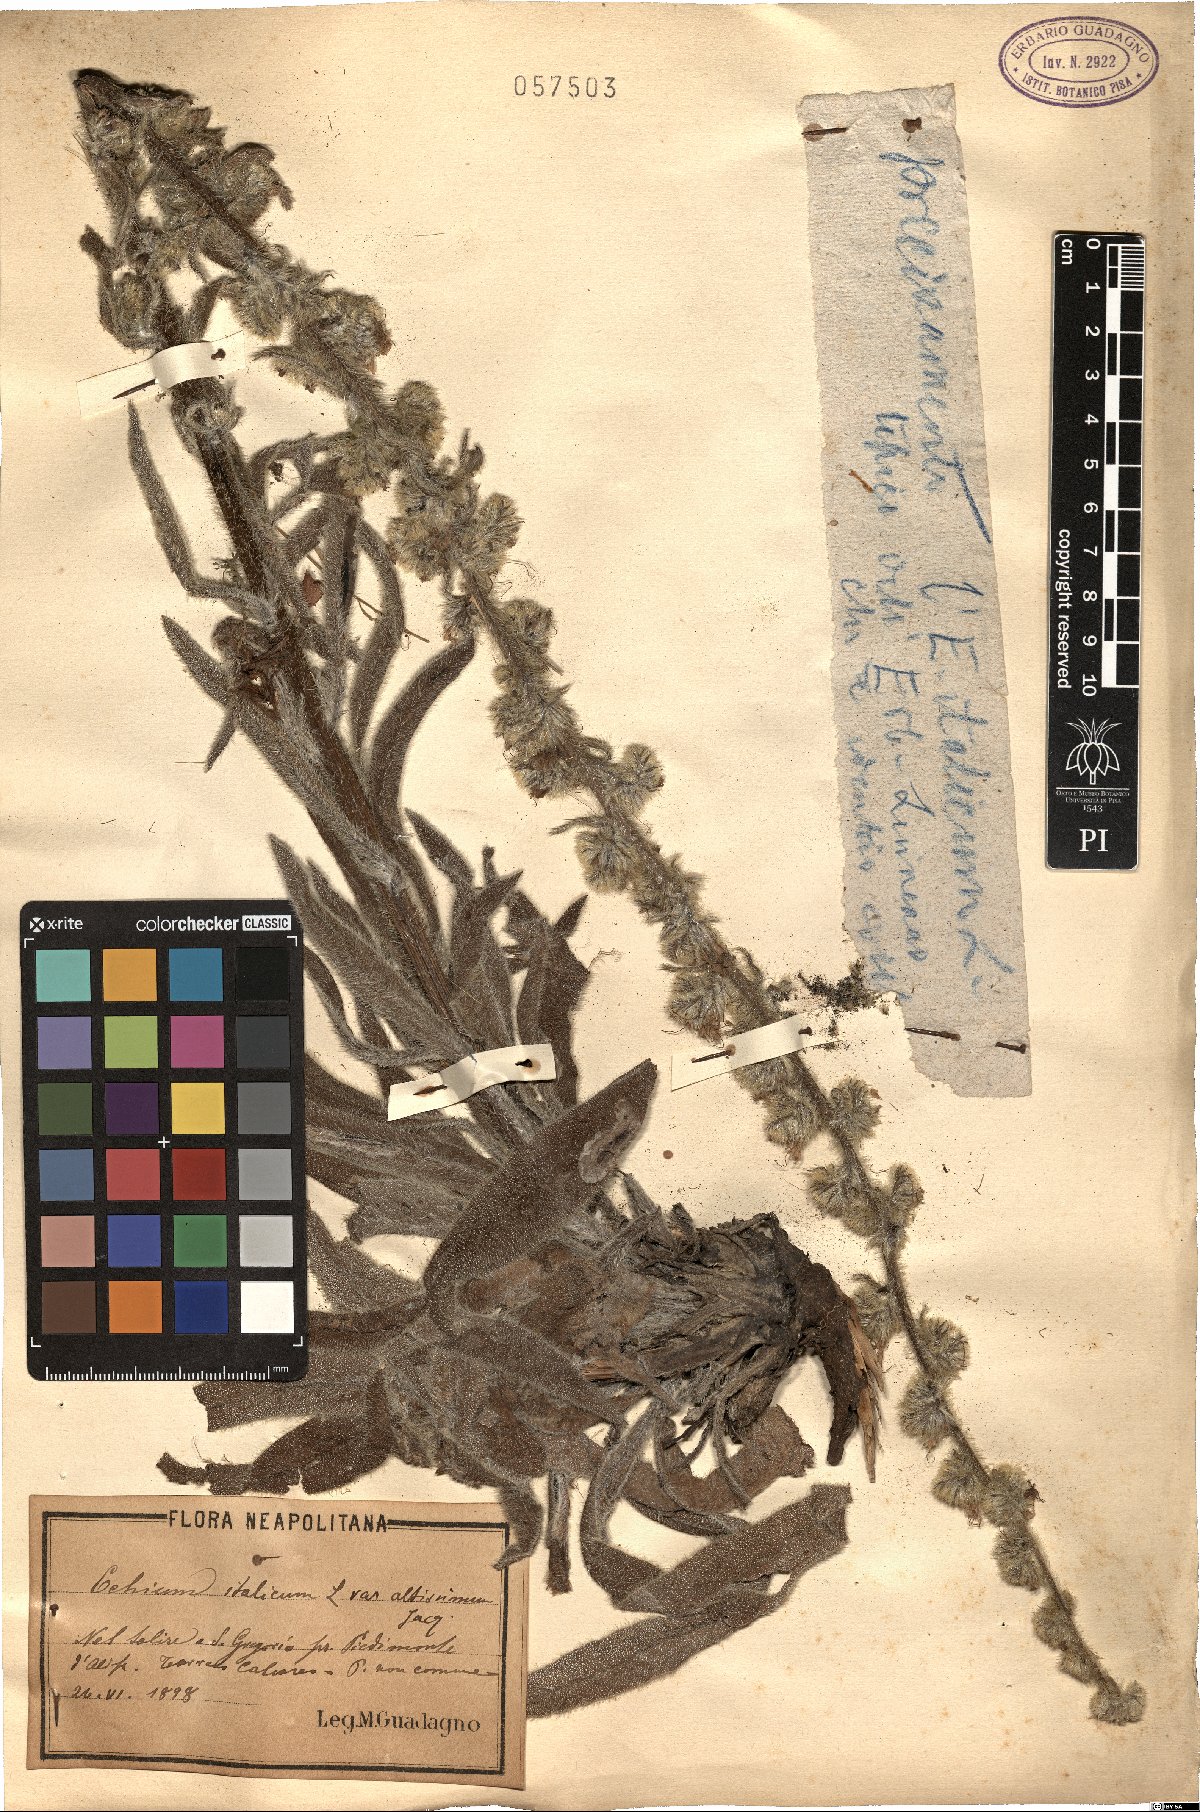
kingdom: Plantae
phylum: Tracheophyta
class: Magnoliopsida
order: Boraginales
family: Boraginaceae
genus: Echium
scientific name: Echium italicum
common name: Italian viper's bugloss
